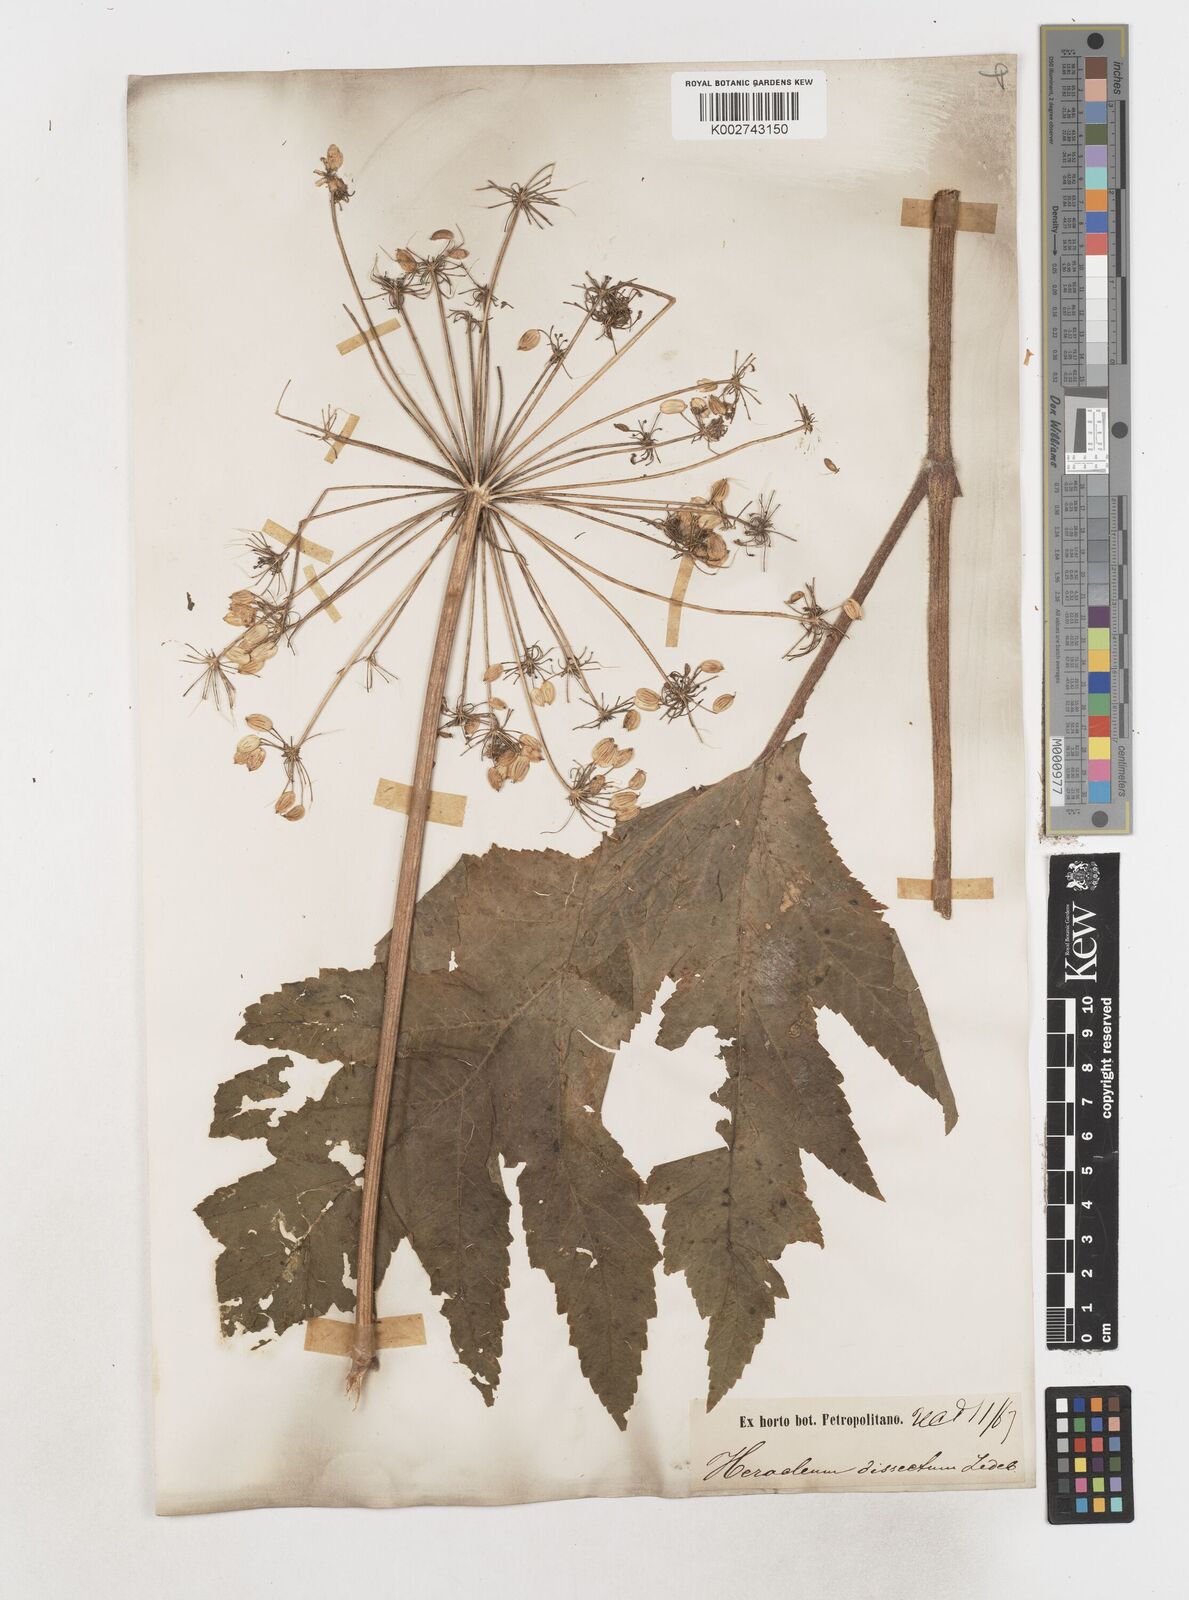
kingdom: Plantae
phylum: Tracheophyta
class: Magnoliopsida
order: Apiales
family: Apiaceae
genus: Heracleum
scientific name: Heracleum dissectum
